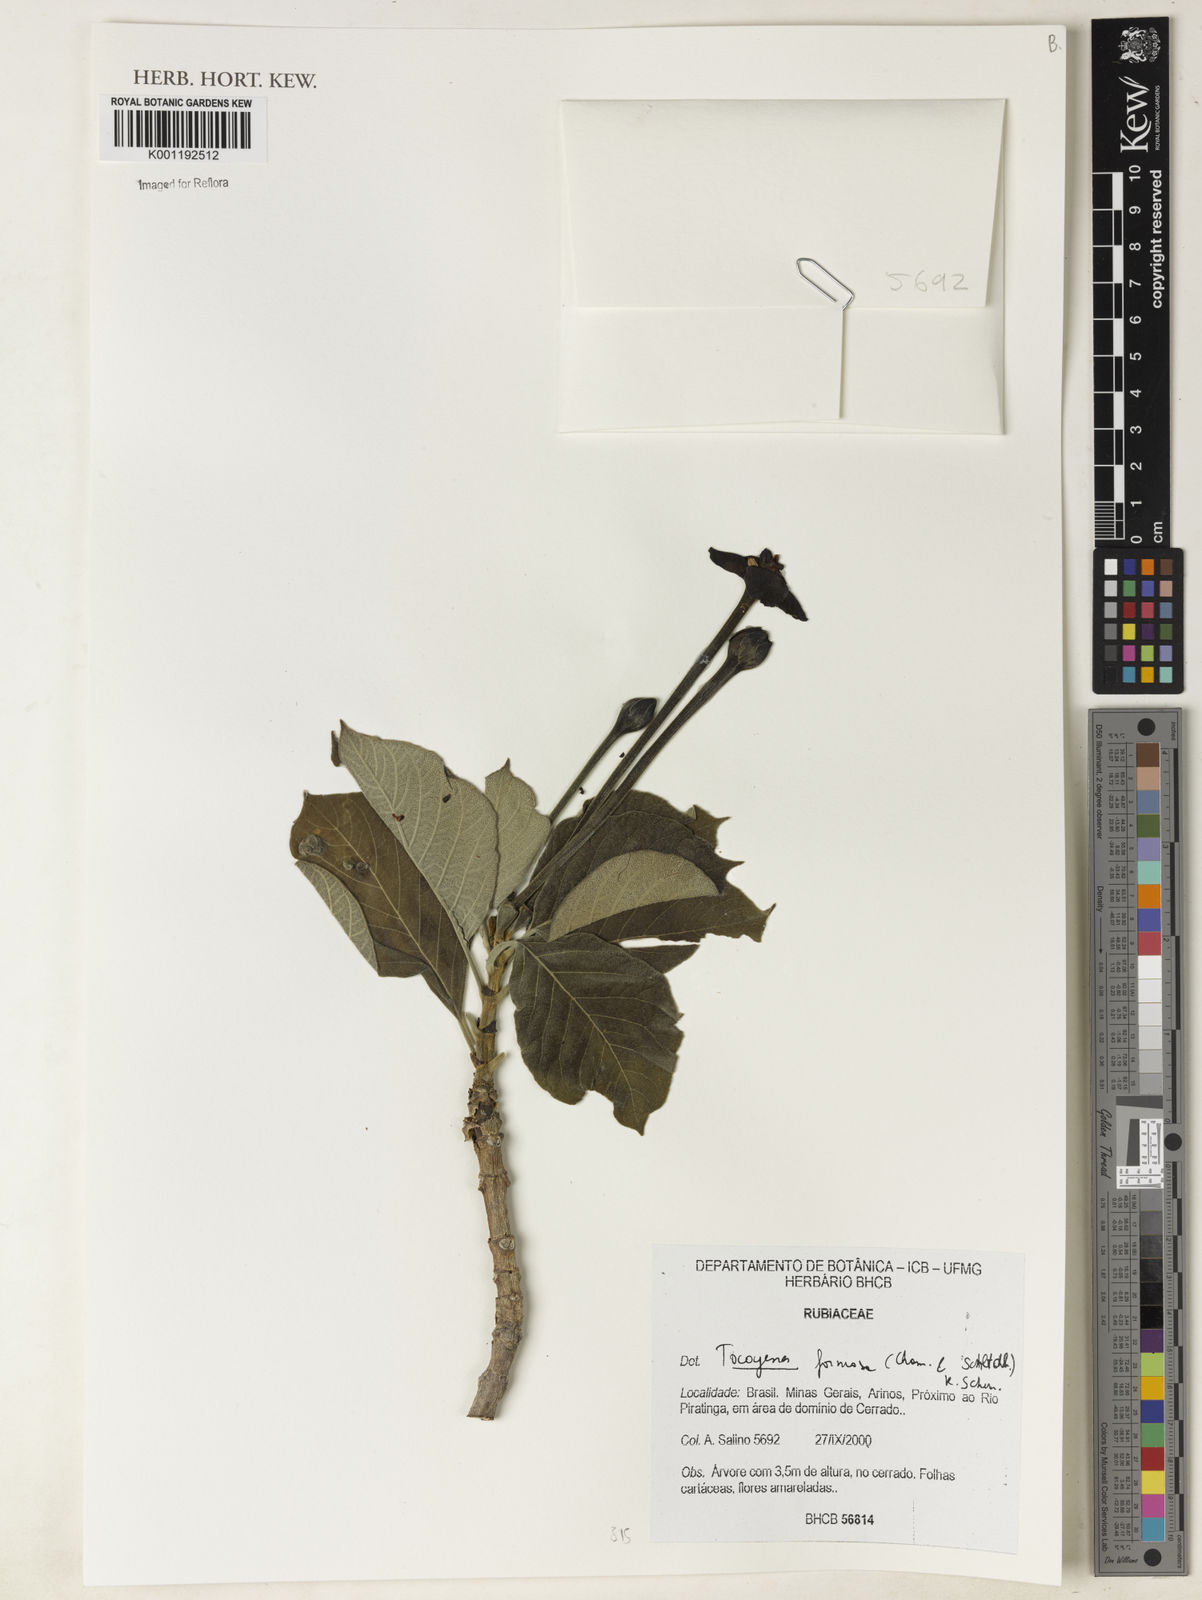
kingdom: Plantae
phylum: Tracheophyta
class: Magnoliopsida
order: Gentianales
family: Rubiaceae
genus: Tocoyena
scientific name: Tocoyena formosa
